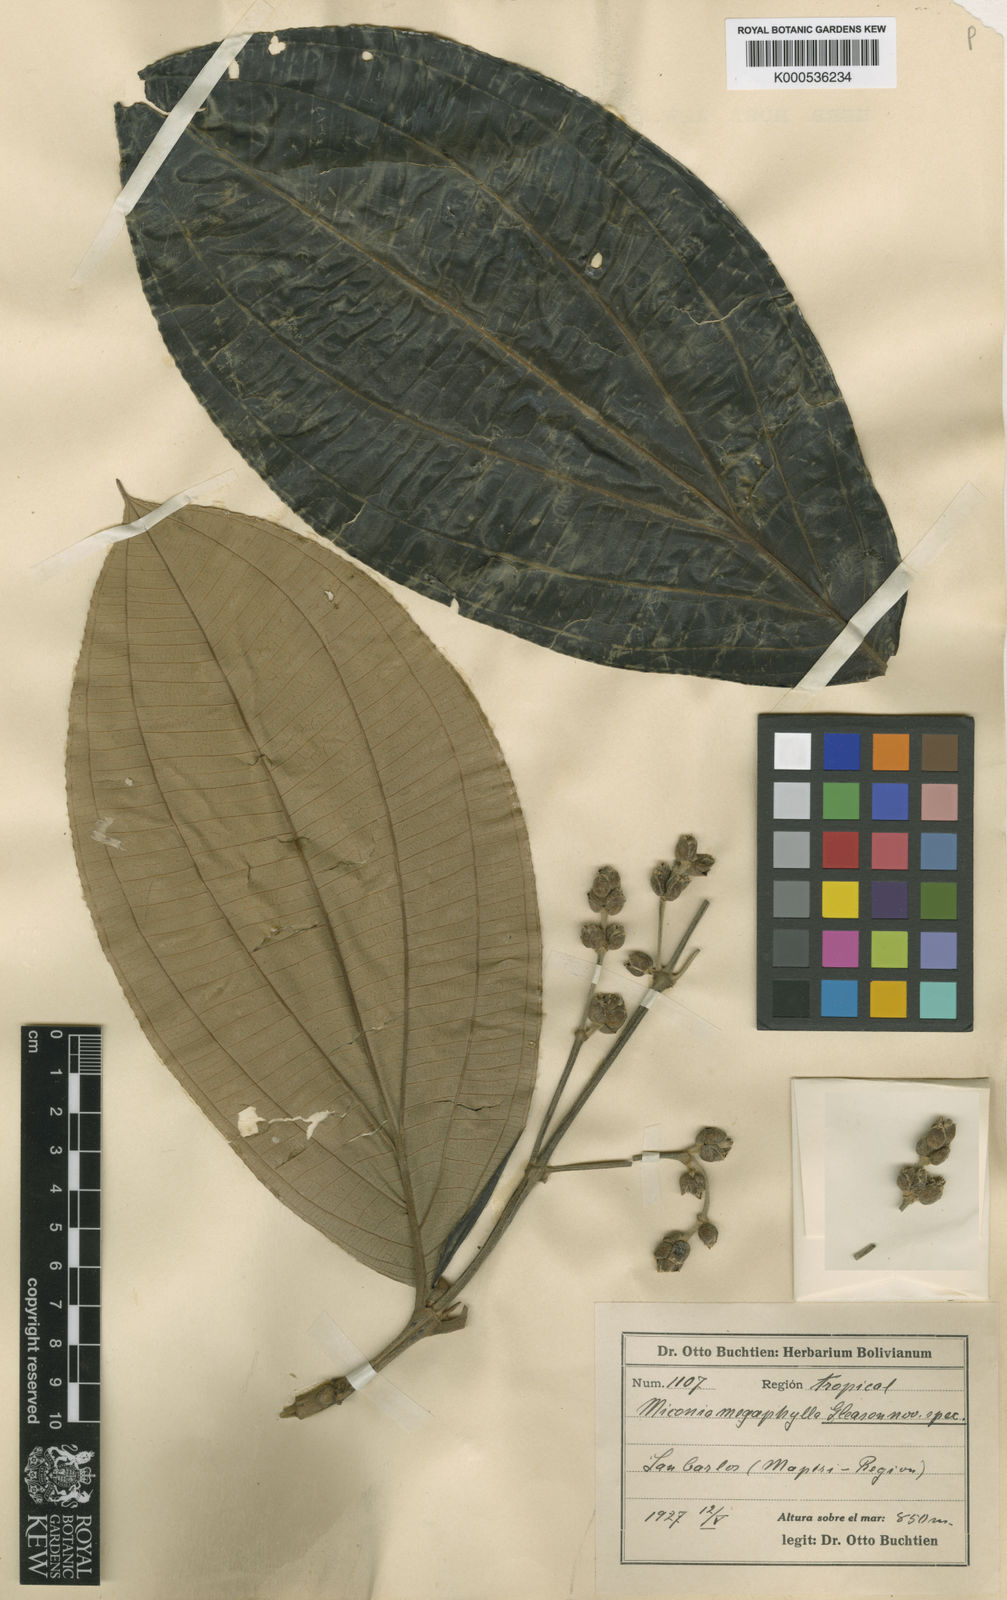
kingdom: Plantae
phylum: Tracheophyta
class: Magnoliopsida
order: Myrtales
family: Melastomataceae
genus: Miconia
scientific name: Miconia ampla
